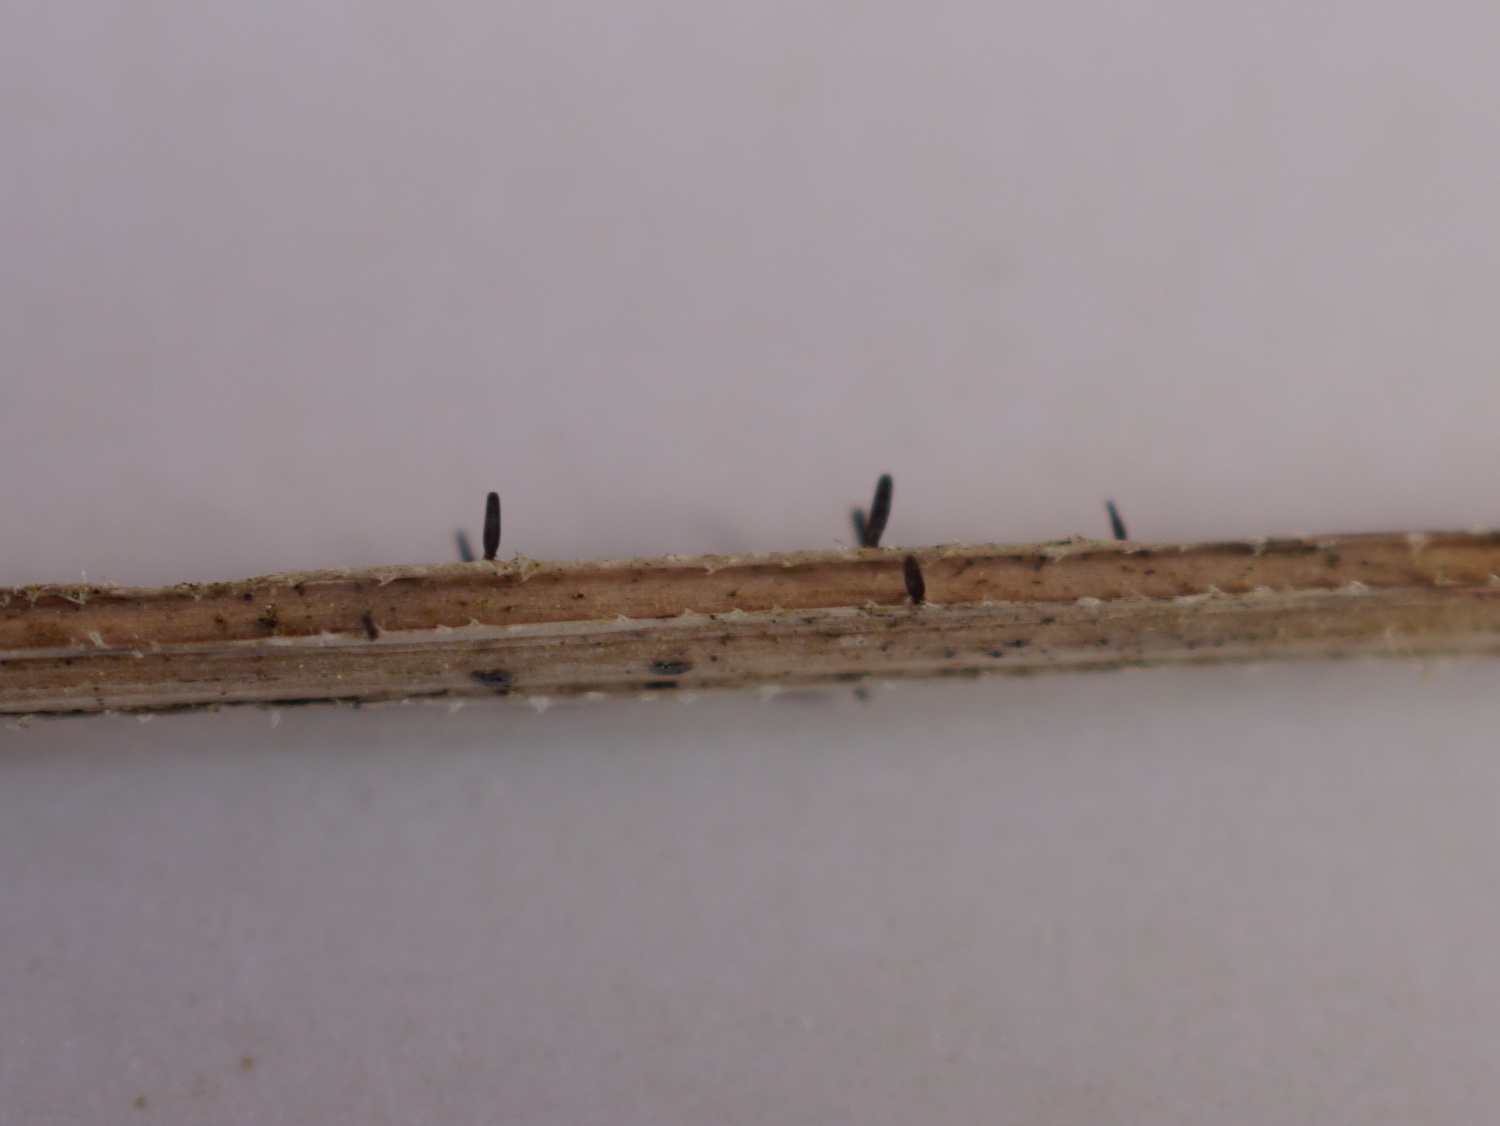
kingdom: Fungi
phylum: Ascomycota
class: Dothideomycetes
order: Acrospermales
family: Acrospermaceae
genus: Acrospermum
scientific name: Acrospermum pallidulum
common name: snerre-stængeltunge
